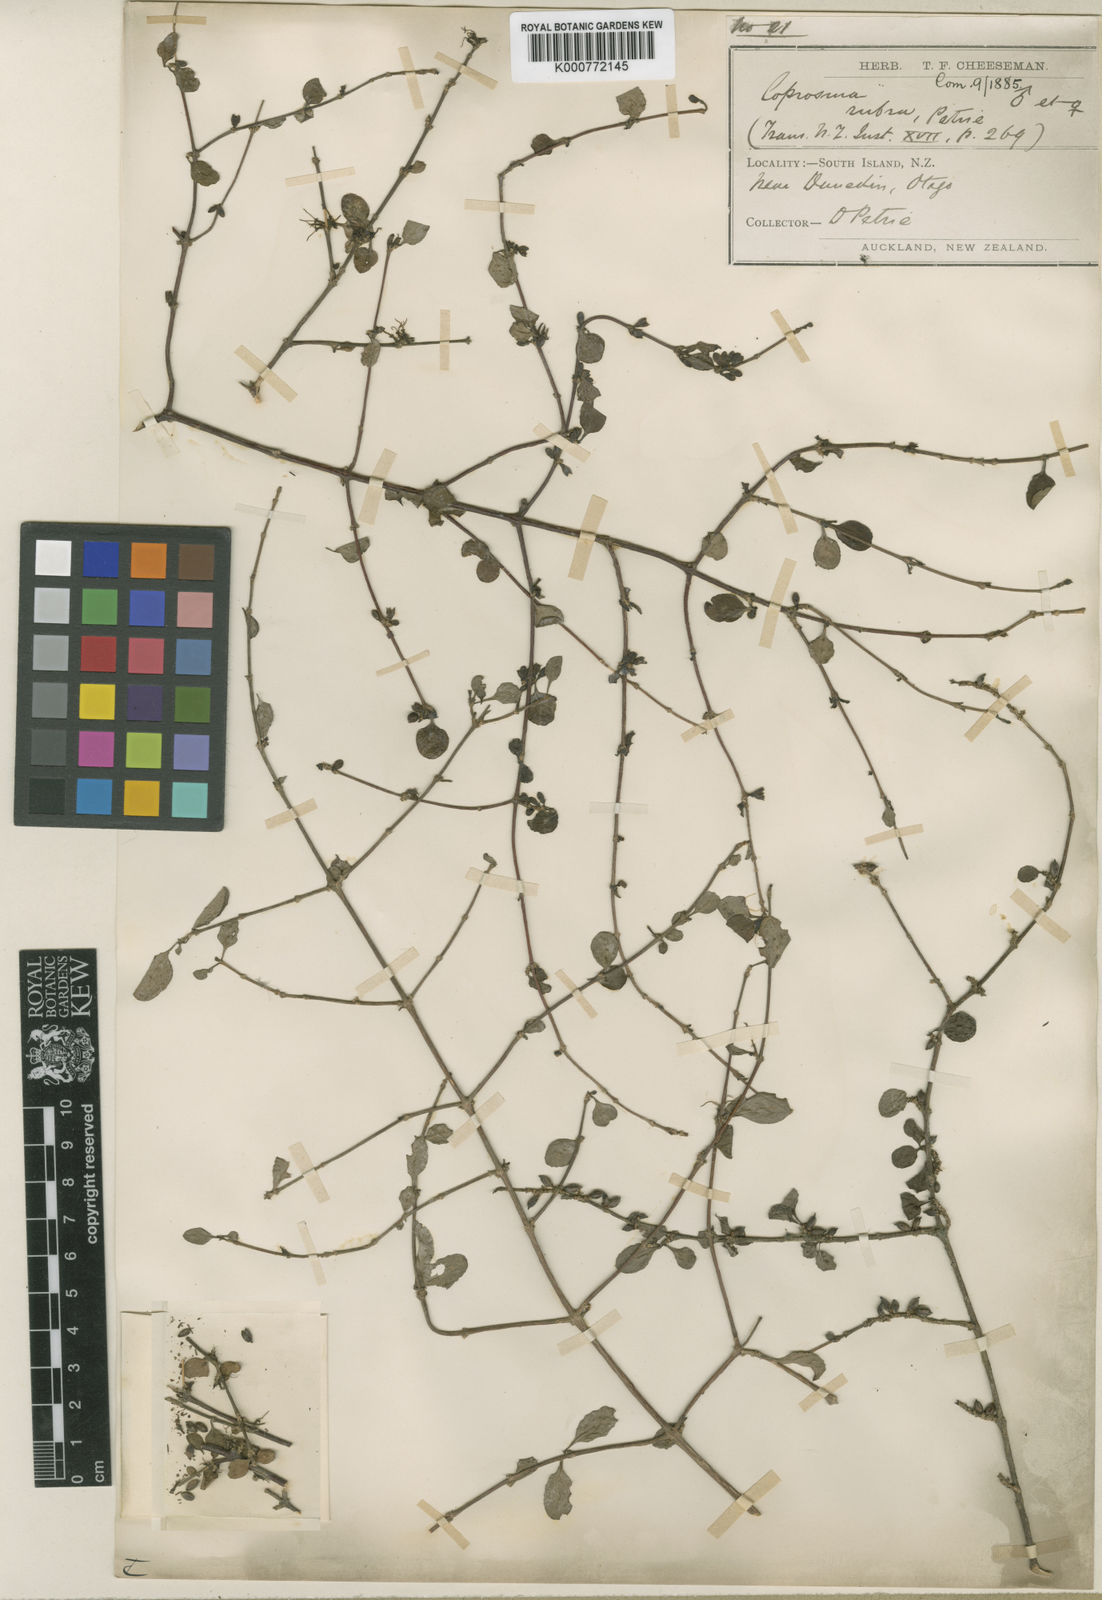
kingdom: Plantae
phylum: Tracheophyta
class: Magnoliopsida
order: Gentianales
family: Rubiaceae
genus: Coprosma
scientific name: Coprosma rubra
